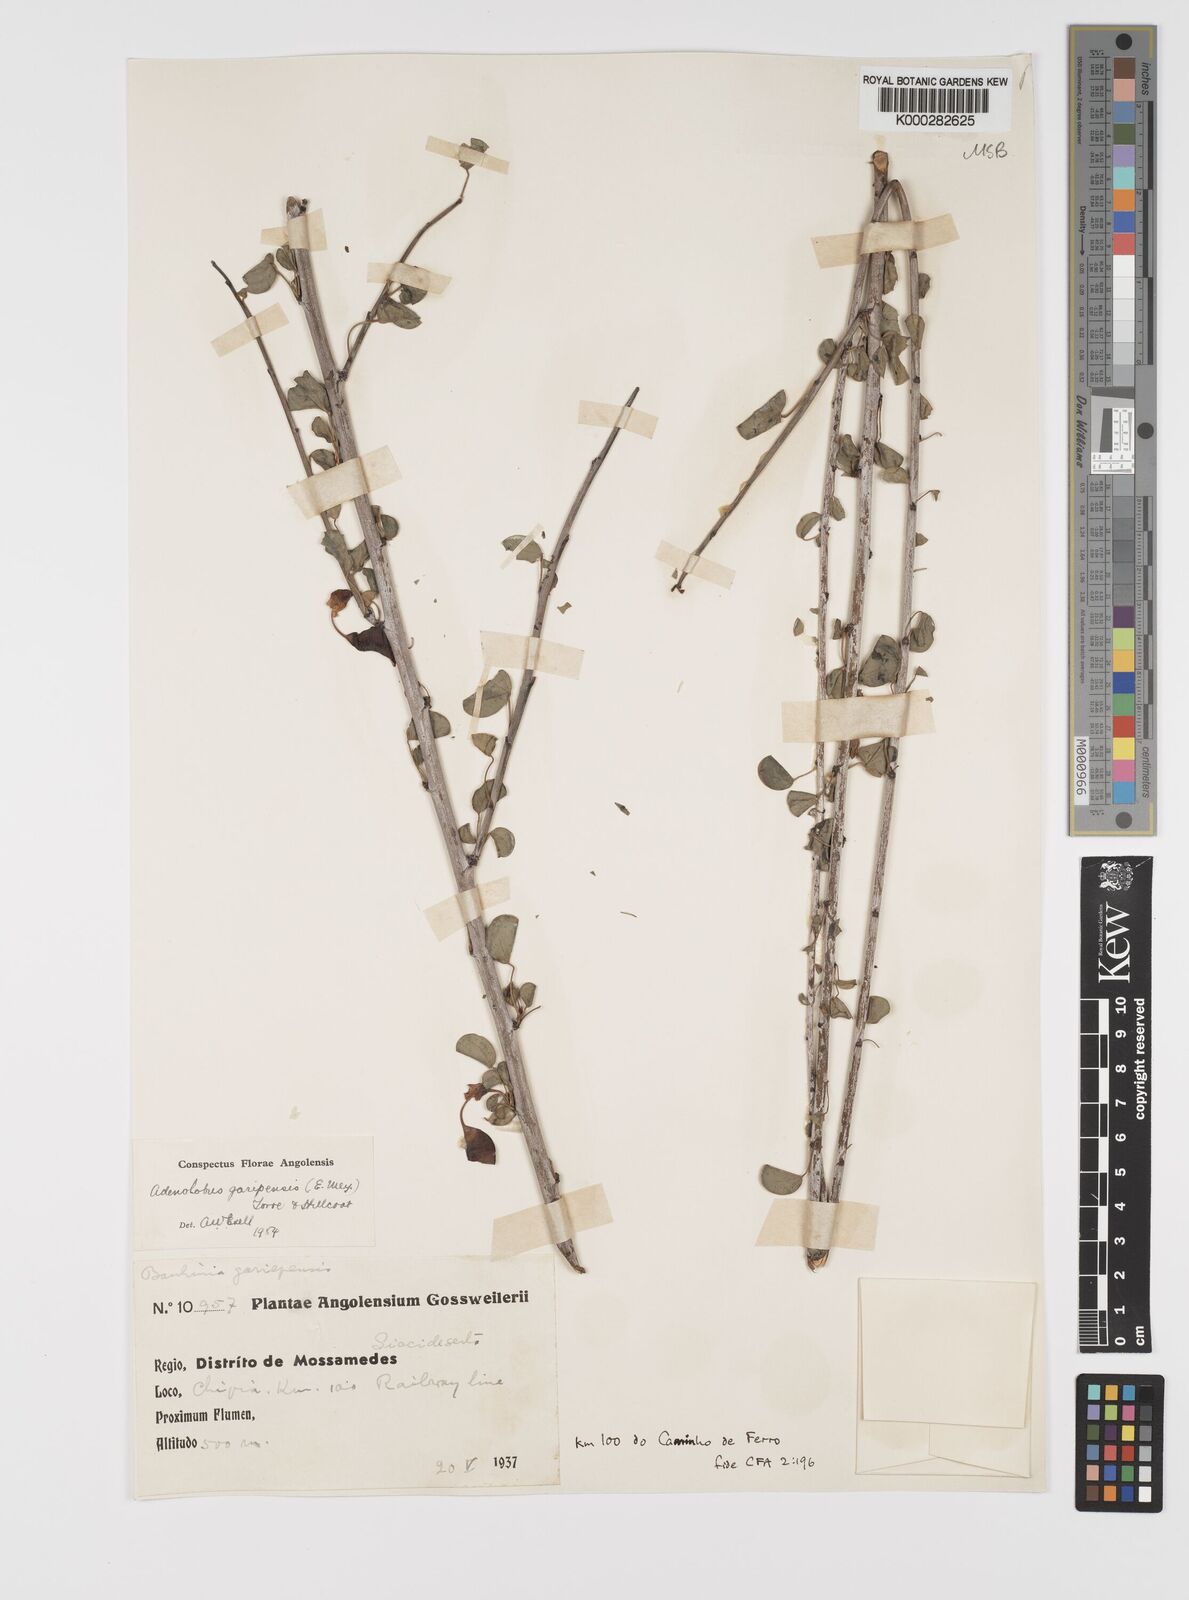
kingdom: Plantae
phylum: Tracheophyta
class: Magnoliopsida
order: Fabales
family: Fabaceae
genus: Adenolobus
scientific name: Adenolobus garipensis
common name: Butterfly-leaf
